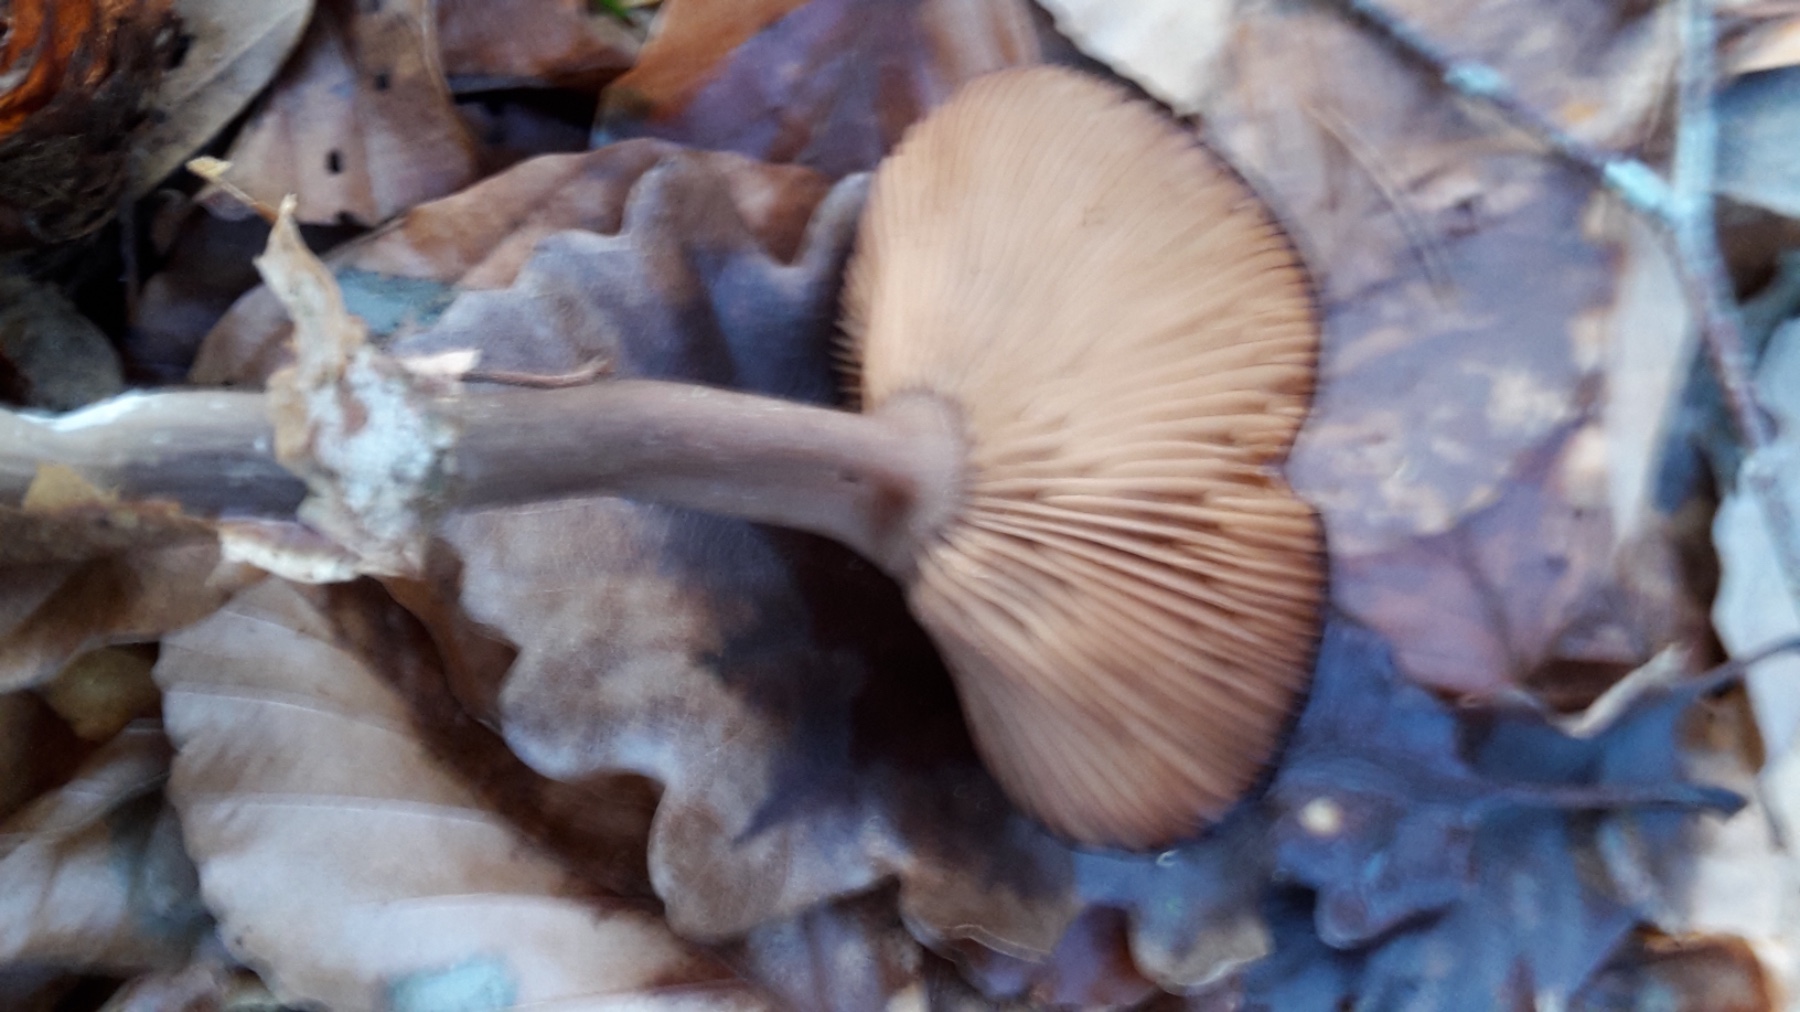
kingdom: Fungi
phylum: Basidiomycota
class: Agaricomycetes
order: Agaricales
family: Pseudoclitocybaceae
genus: Pseudoclitocybe
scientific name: Pseudoclitocybe cyathiformis
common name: almindelig bægertragthat
